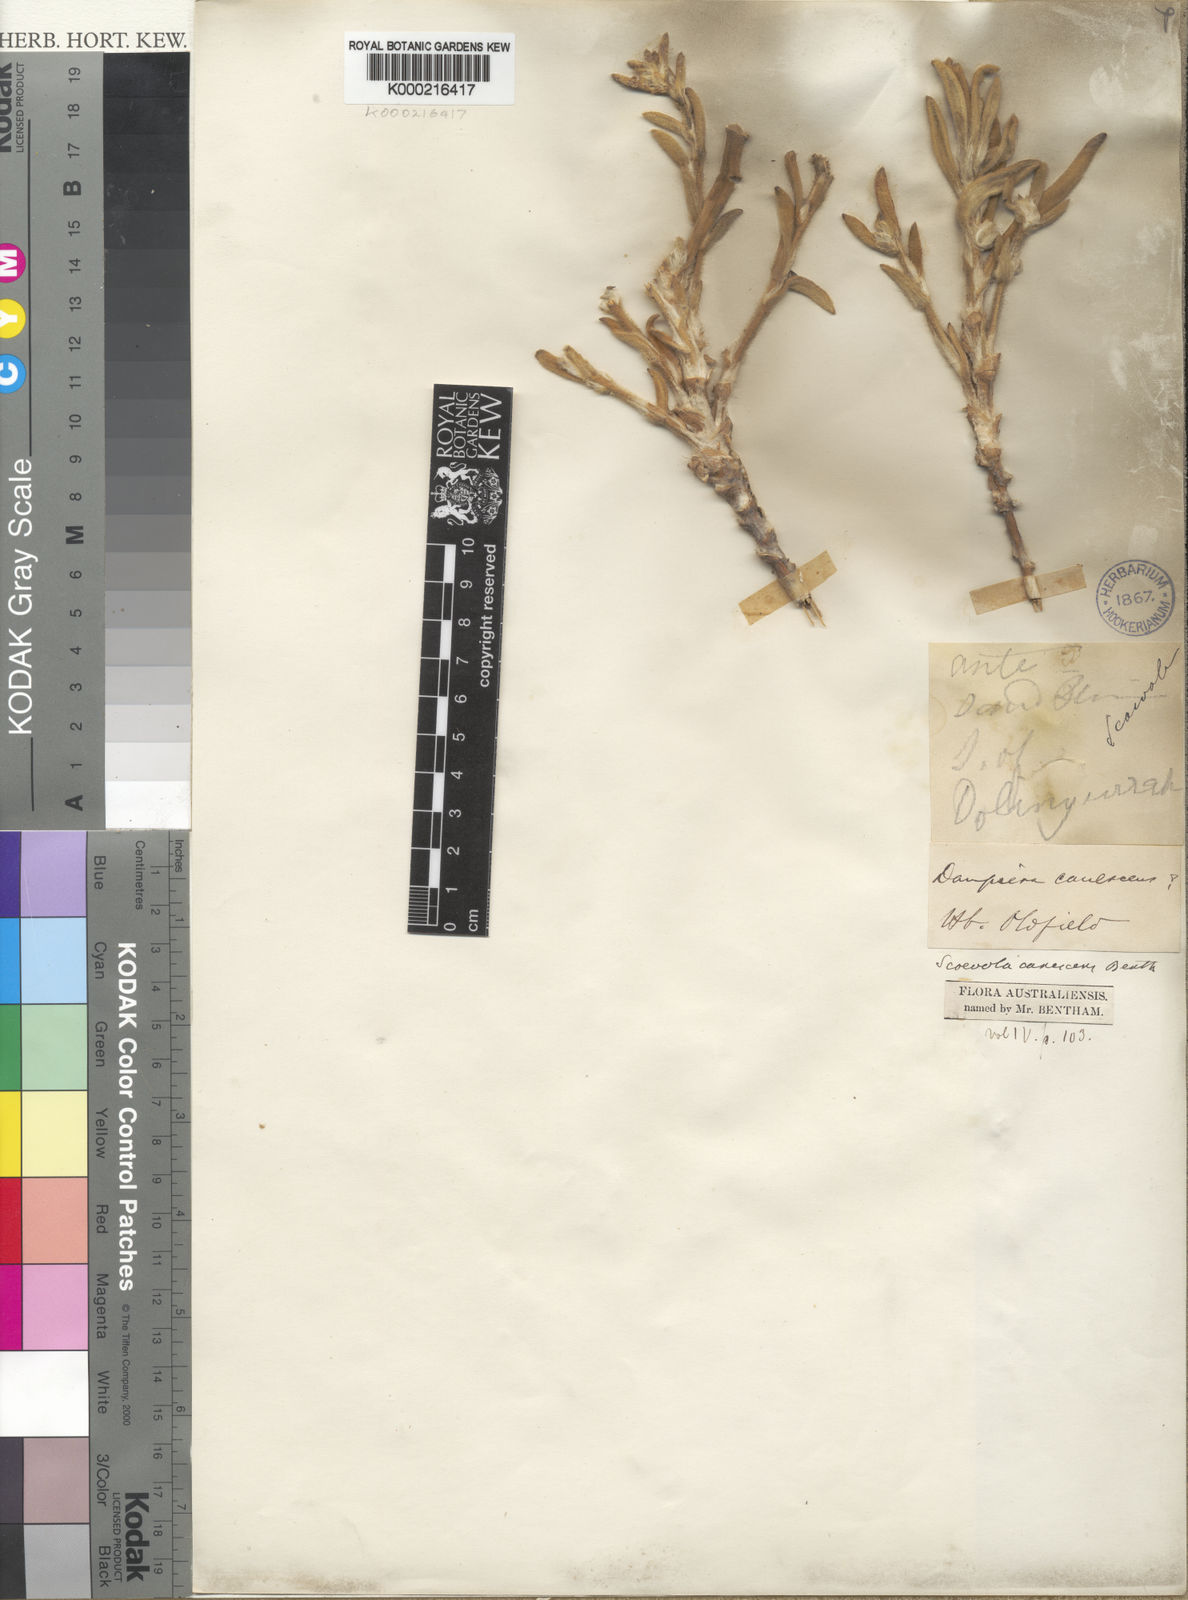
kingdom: Plantae
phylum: Tracheophyta
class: Magnoliopsida
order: Asterales
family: Goodeniaceae
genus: Scaevola
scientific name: Scaevola canescens
